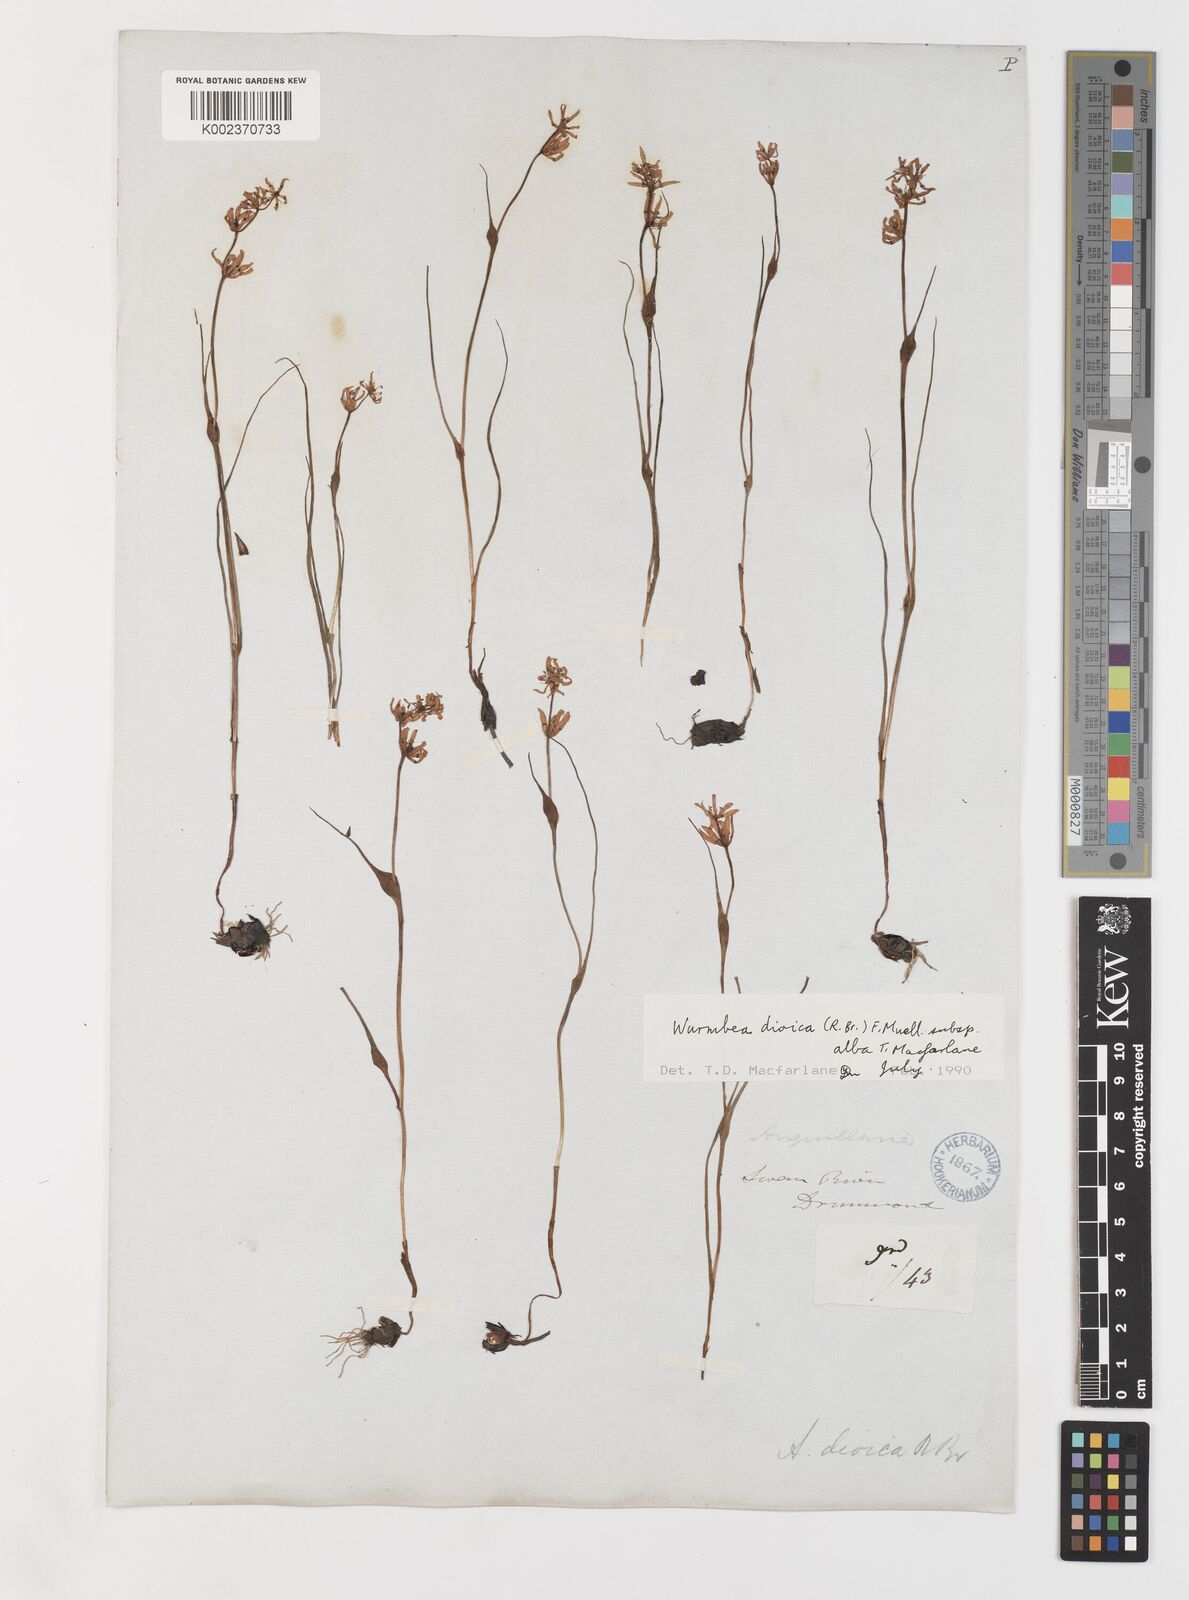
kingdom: Plantae
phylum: Tracheophyta
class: Liliopsida
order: Liliales
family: Colchicaceae
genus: Wurmbea
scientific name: Wurmbea dioica
